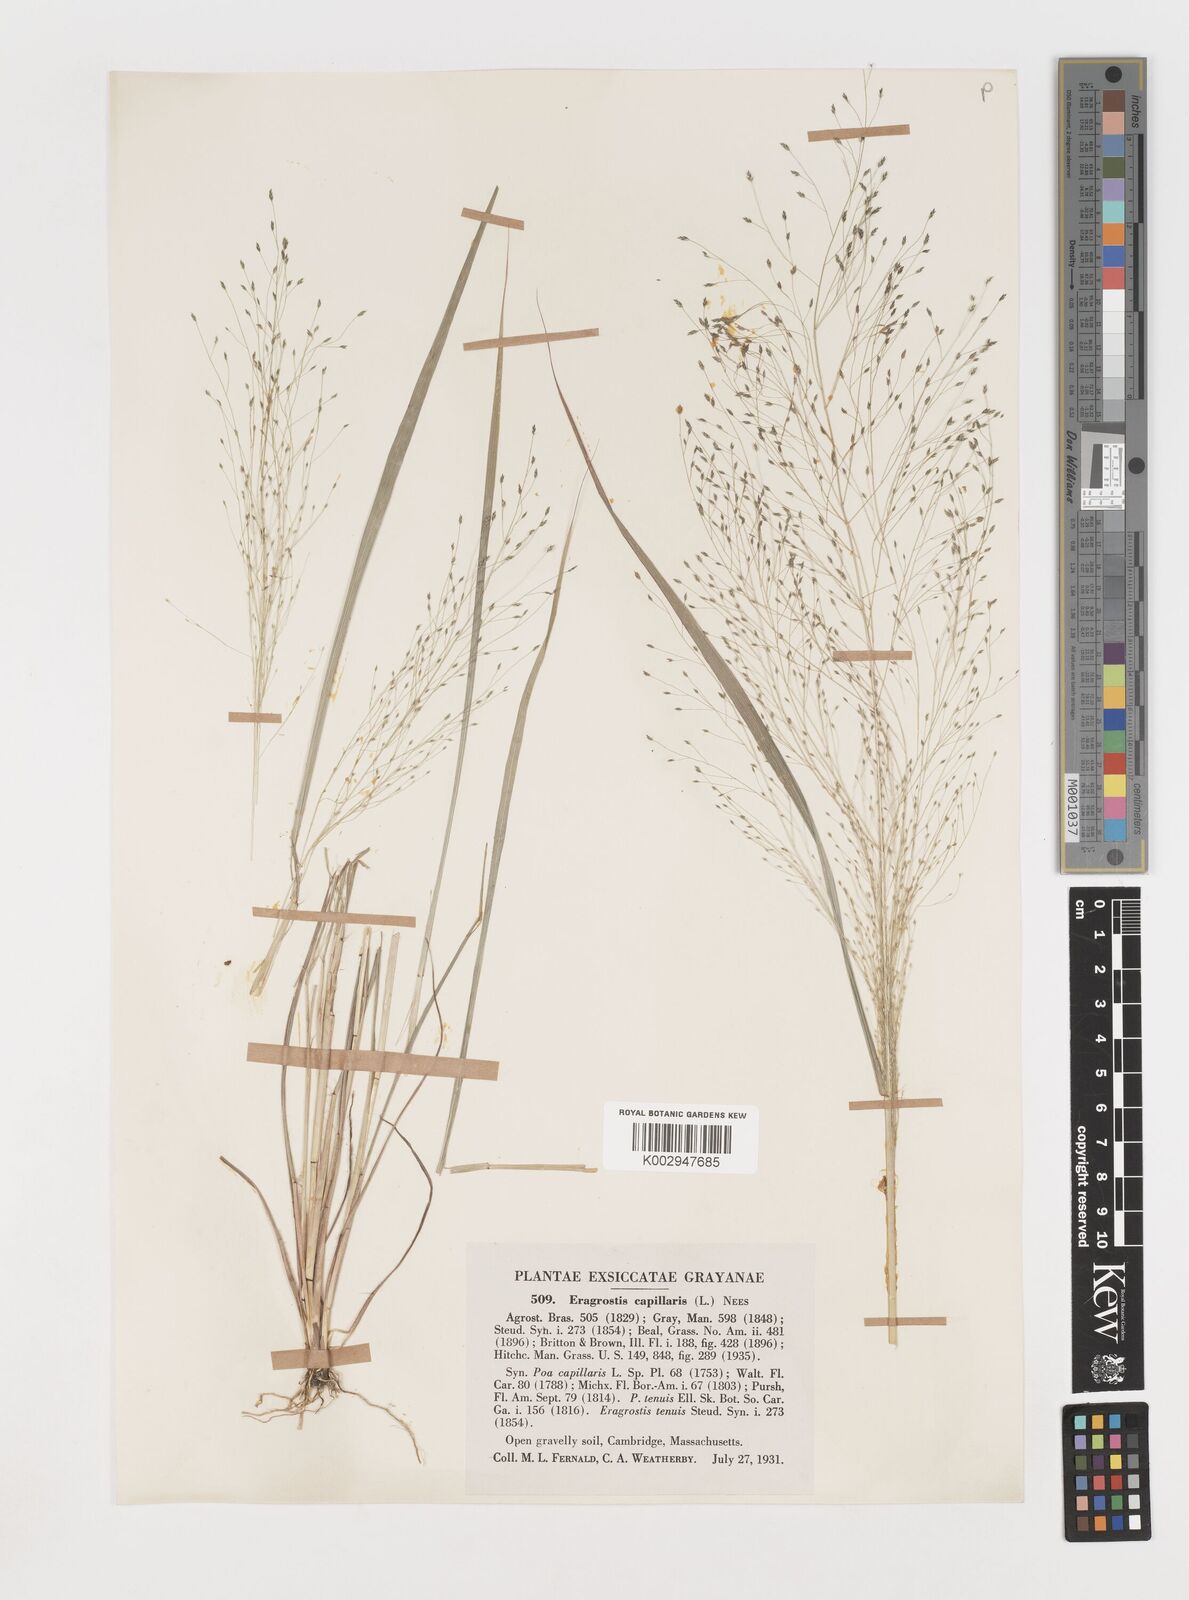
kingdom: Plantae
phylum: Tracheophyta
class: Liliopsida
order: Poales
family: Poaceae
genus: Eragrostis
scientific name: Eragrostis capillaris
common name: Hair-like lovegrass
